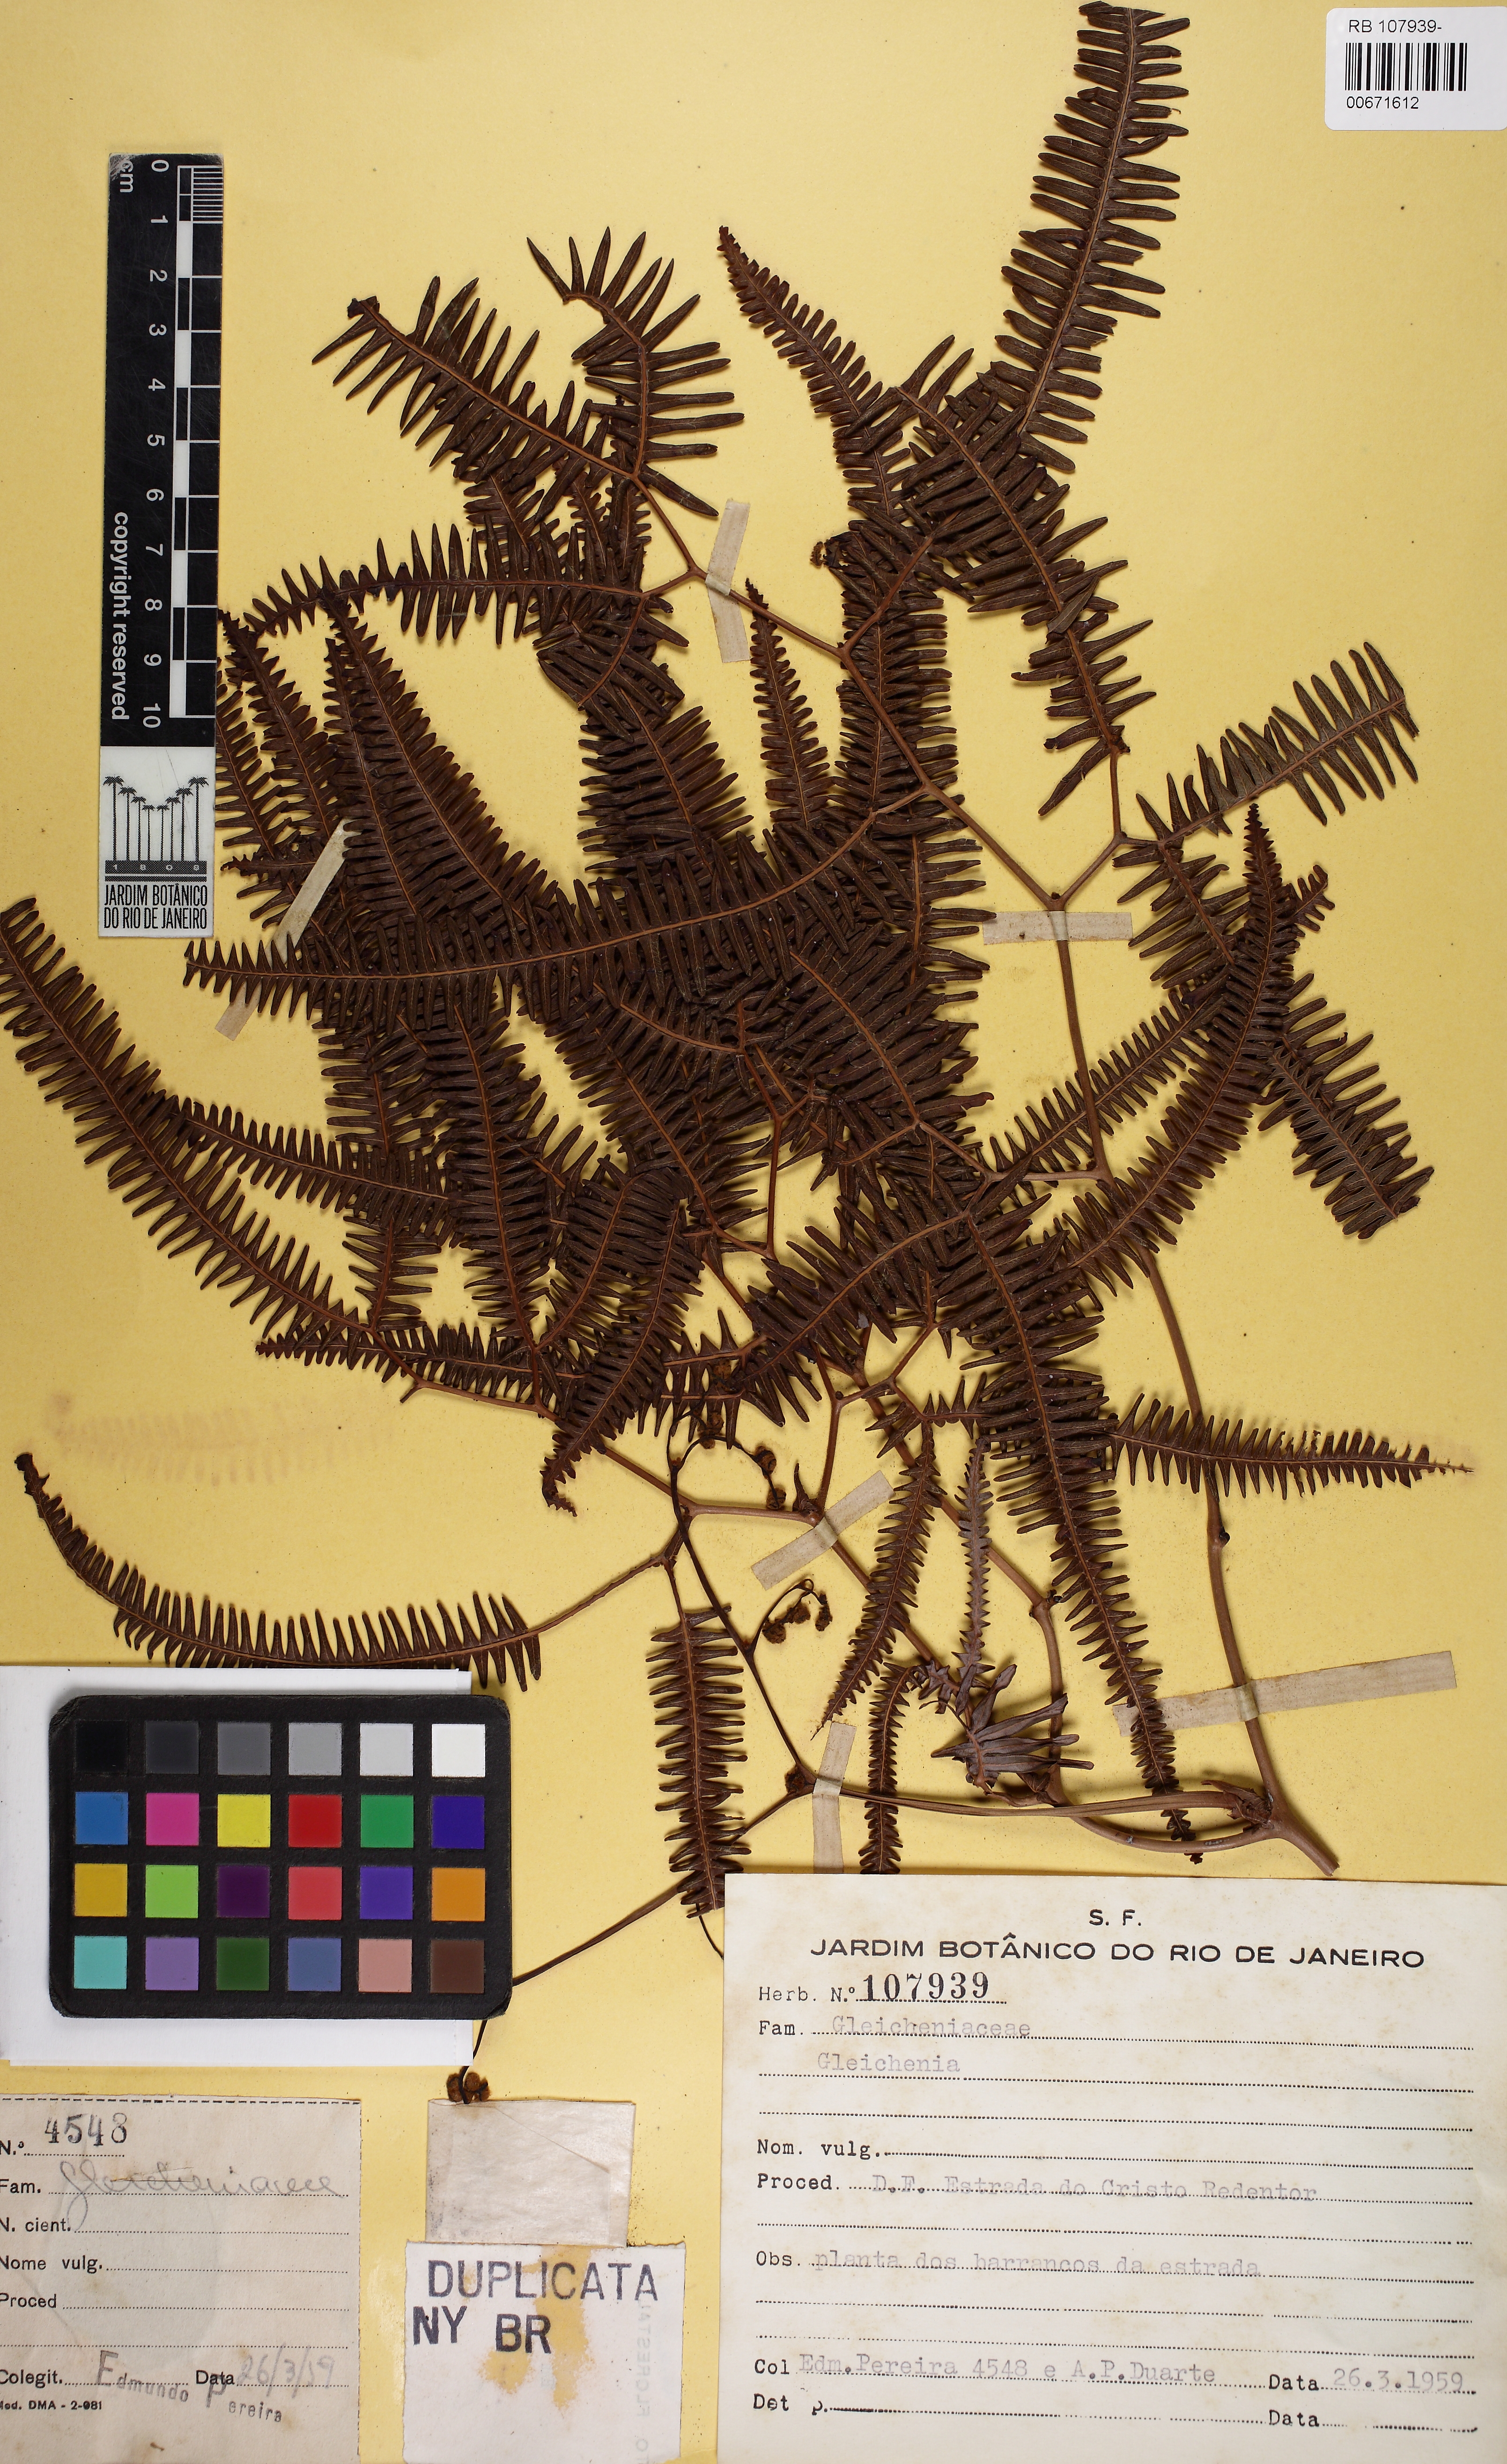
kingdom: Plantae
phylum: Tracheophyta
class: Polypodiopsida
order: Gleicheniales
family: Gleicheniaceae
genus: Gleichenella
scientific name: Gleichenella pectinata
